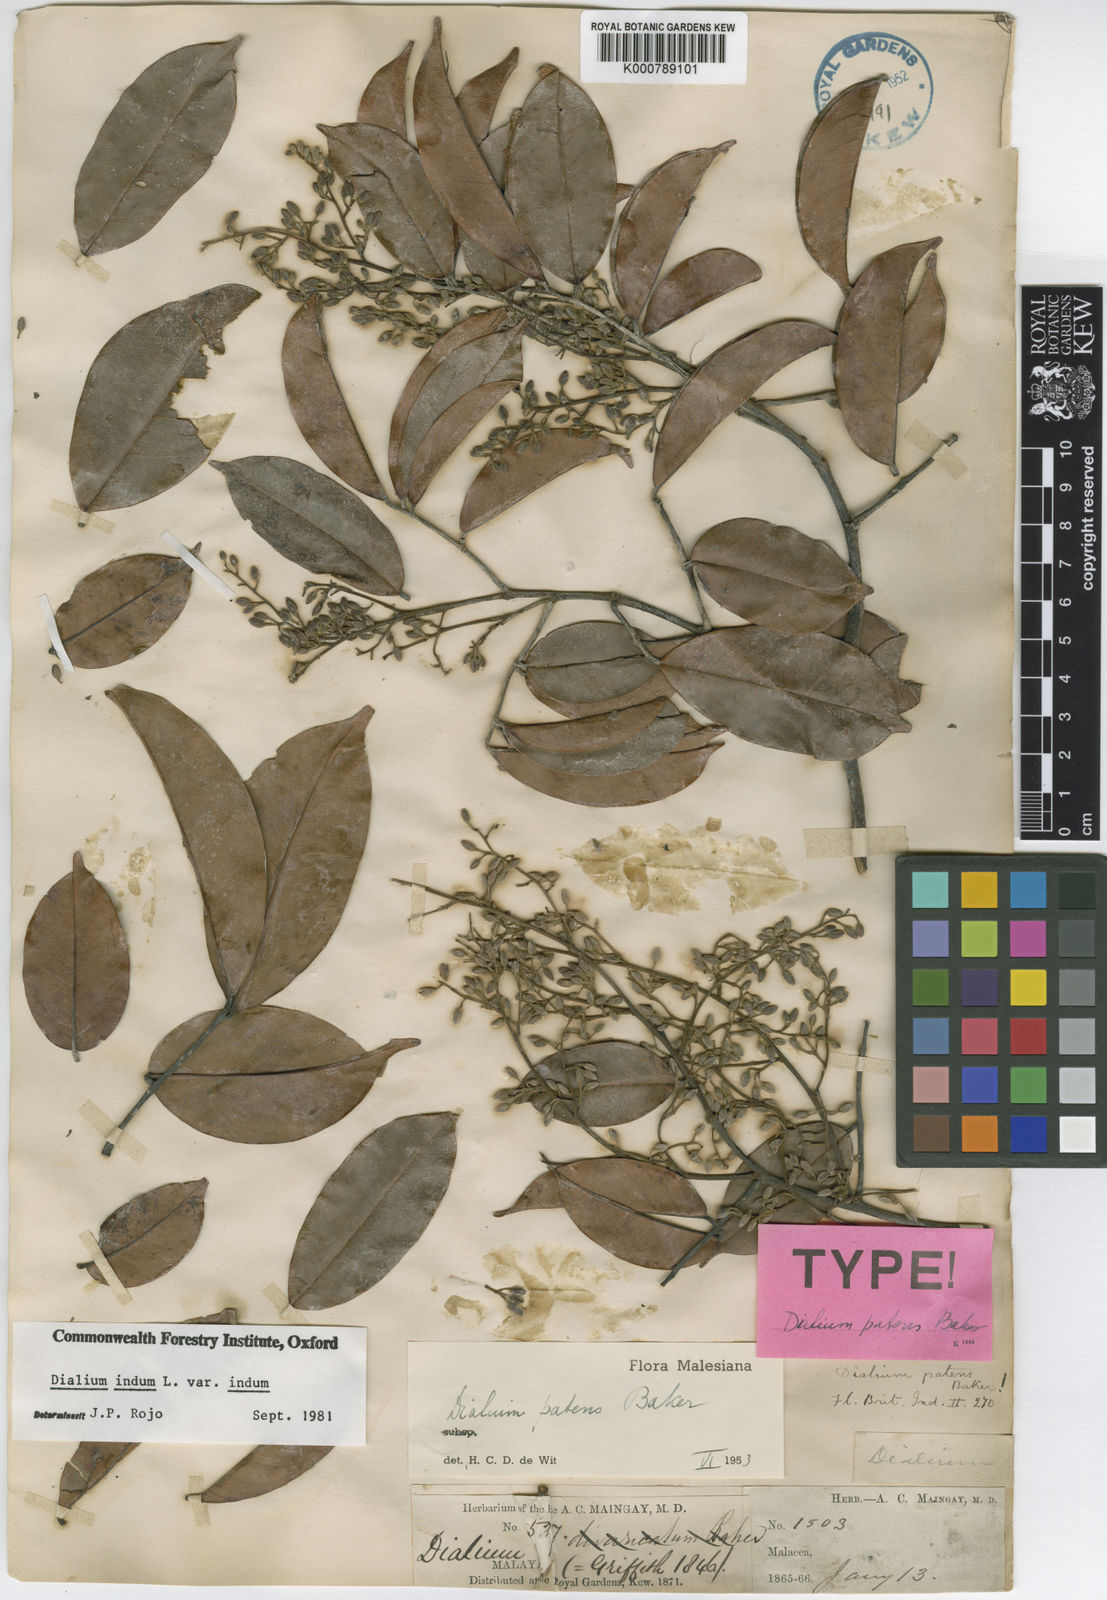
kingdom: Plantae
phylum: Tracheophyta
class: Magnoliopsida
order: Fabales
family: Fabaceae
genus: Dialium
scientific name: Dialium indum
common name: Tamarind-plum
